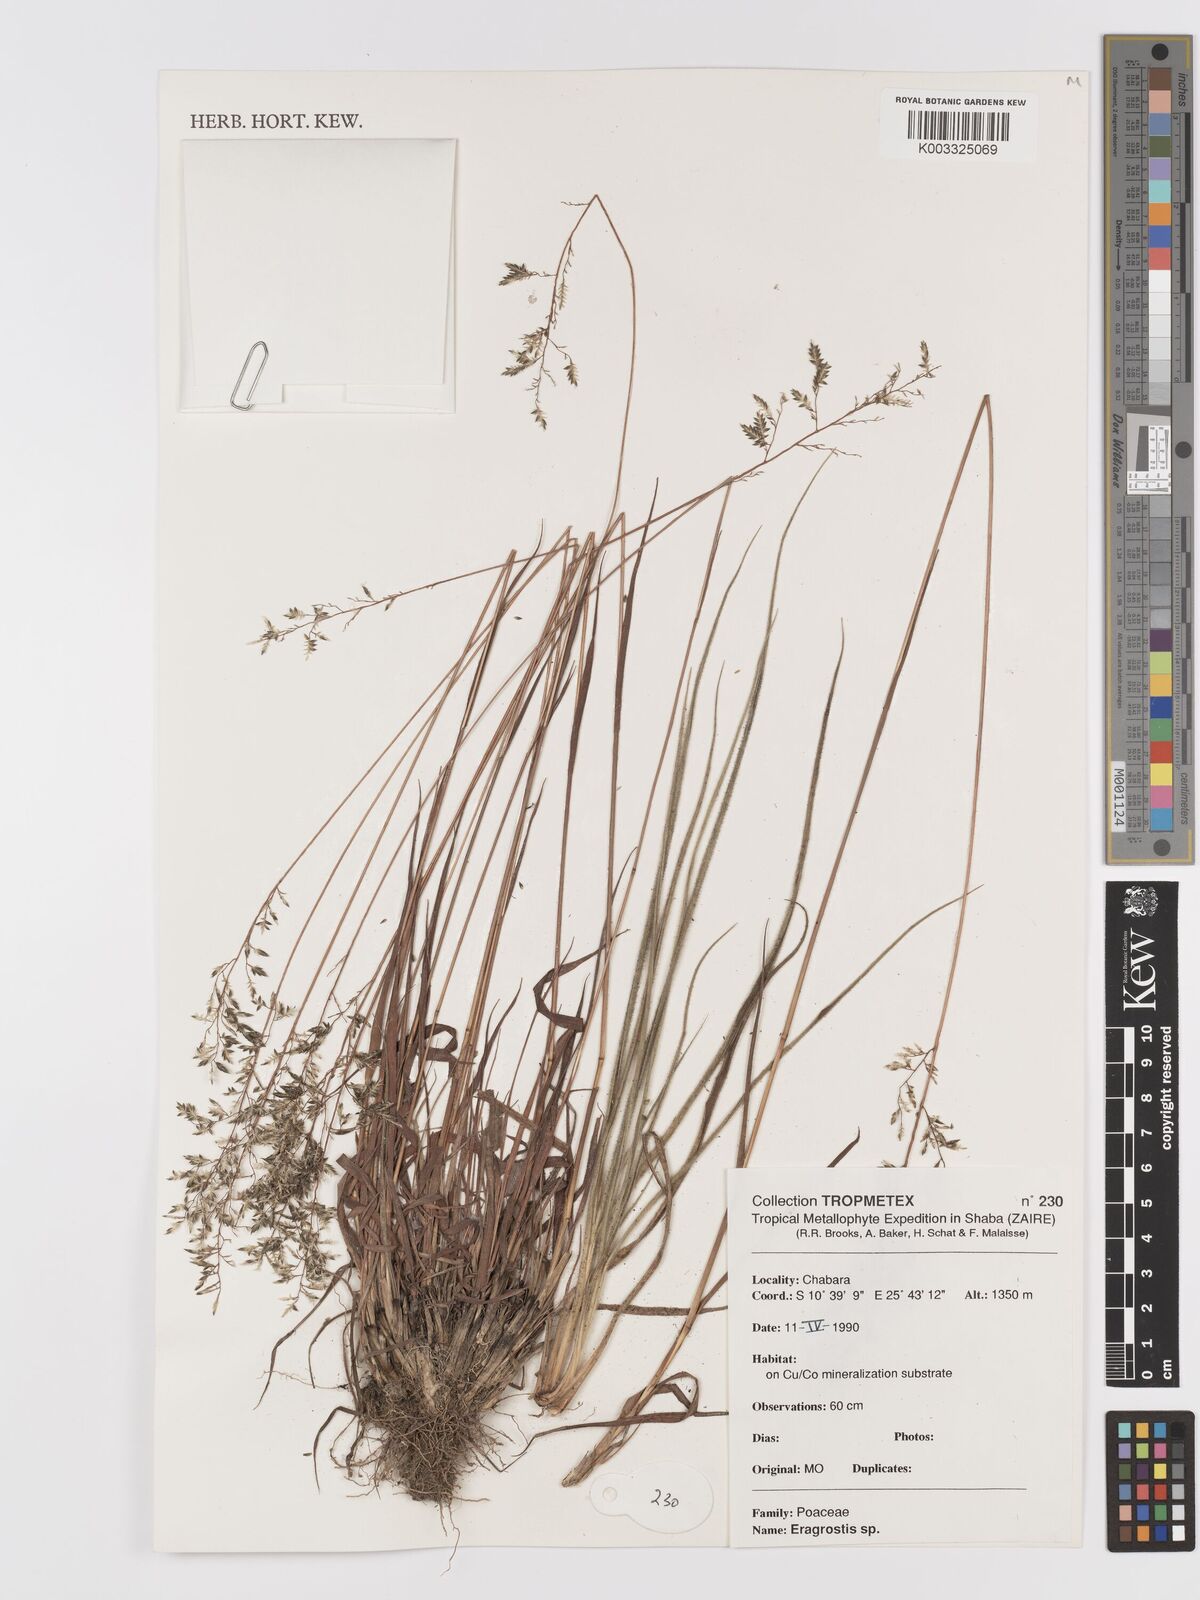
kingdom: Plantae
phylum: Tracheophyta
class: Liliopsida
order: Poales
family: Poaceae
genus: Eragrostis
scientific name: Eragrostis
